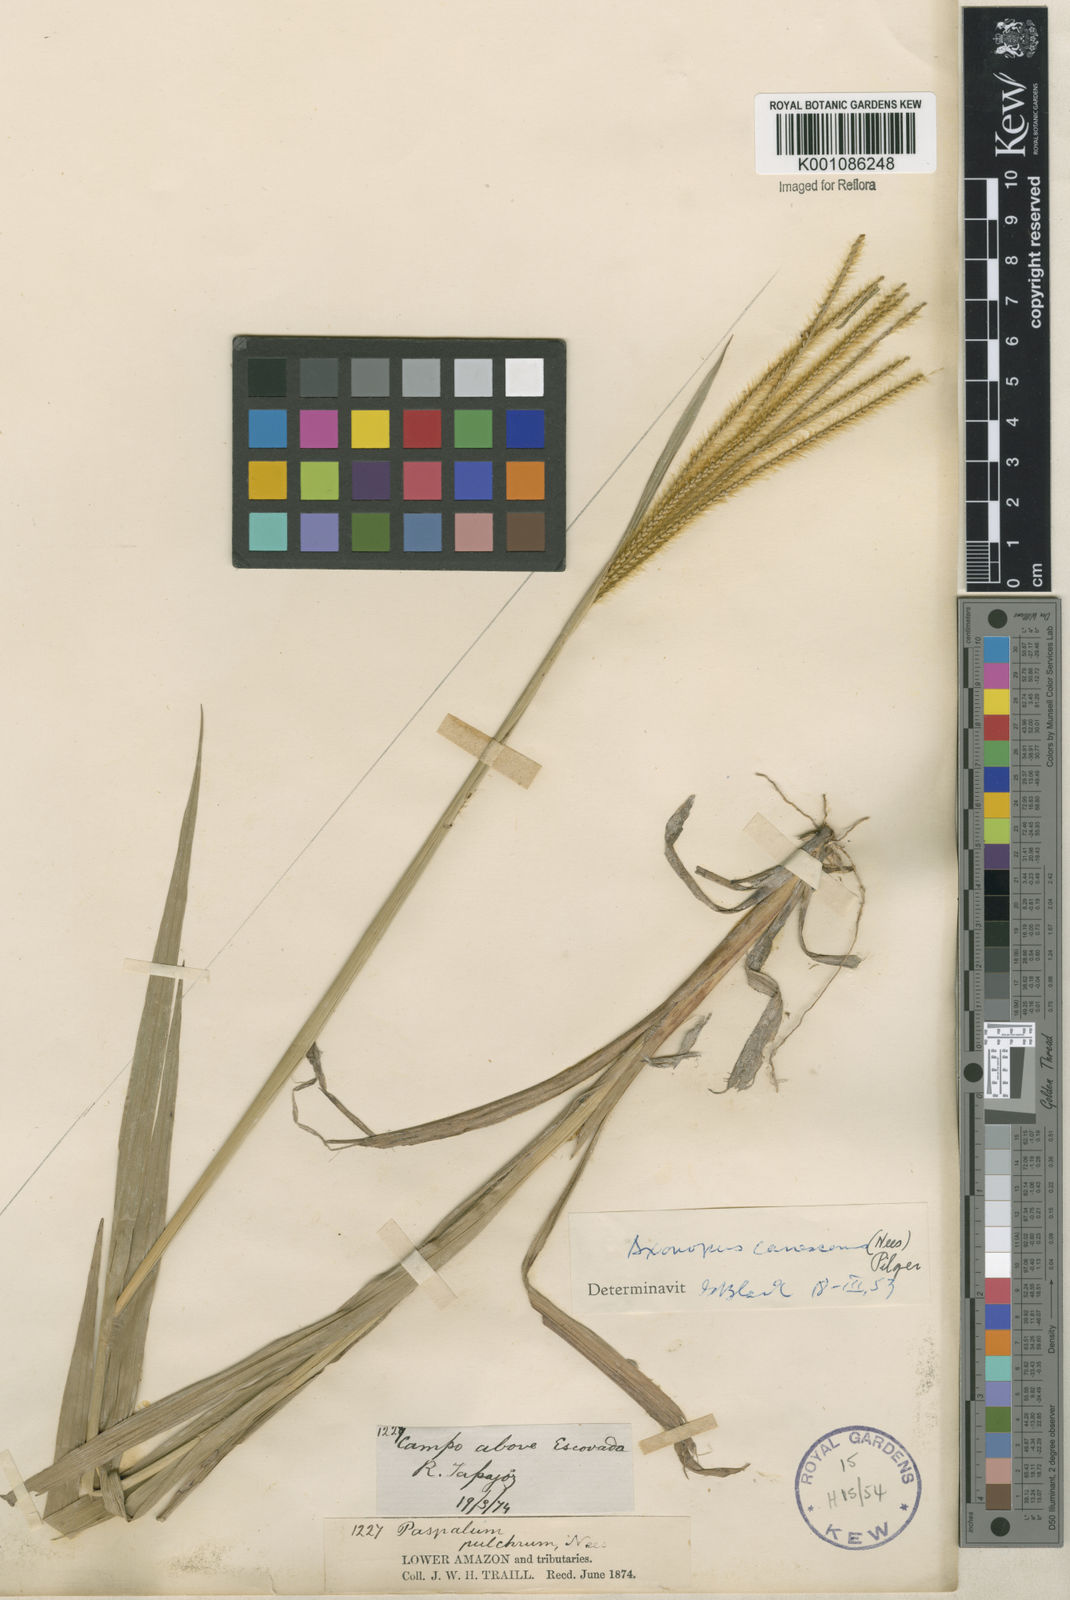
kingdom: Plantae
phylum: Tracheophyta
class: Liliopsida
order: Poales
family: Poaceae
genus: Axonopus
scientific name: Axonopus aureus
